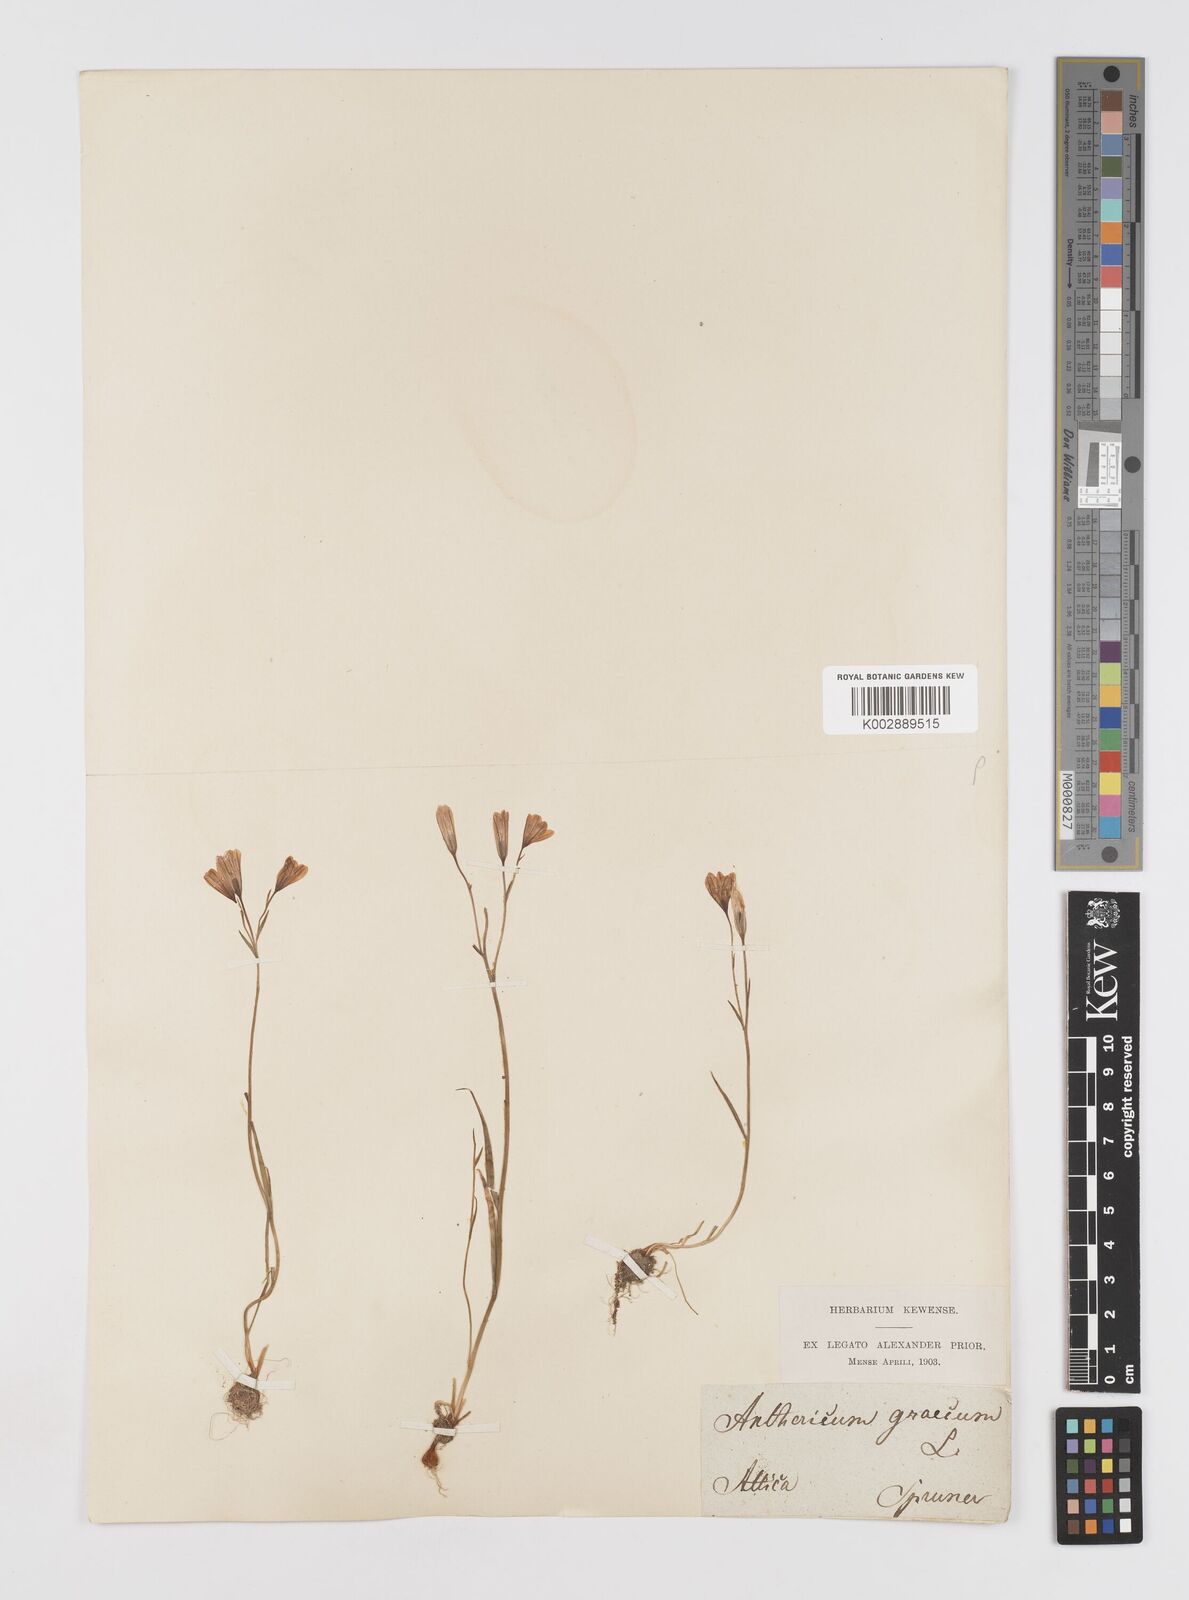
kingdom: Plantae
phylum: Tracheophyta
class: Liliopsida
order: Liliales
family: Liliaceae
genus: Gagea
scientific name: Gagea graeca
